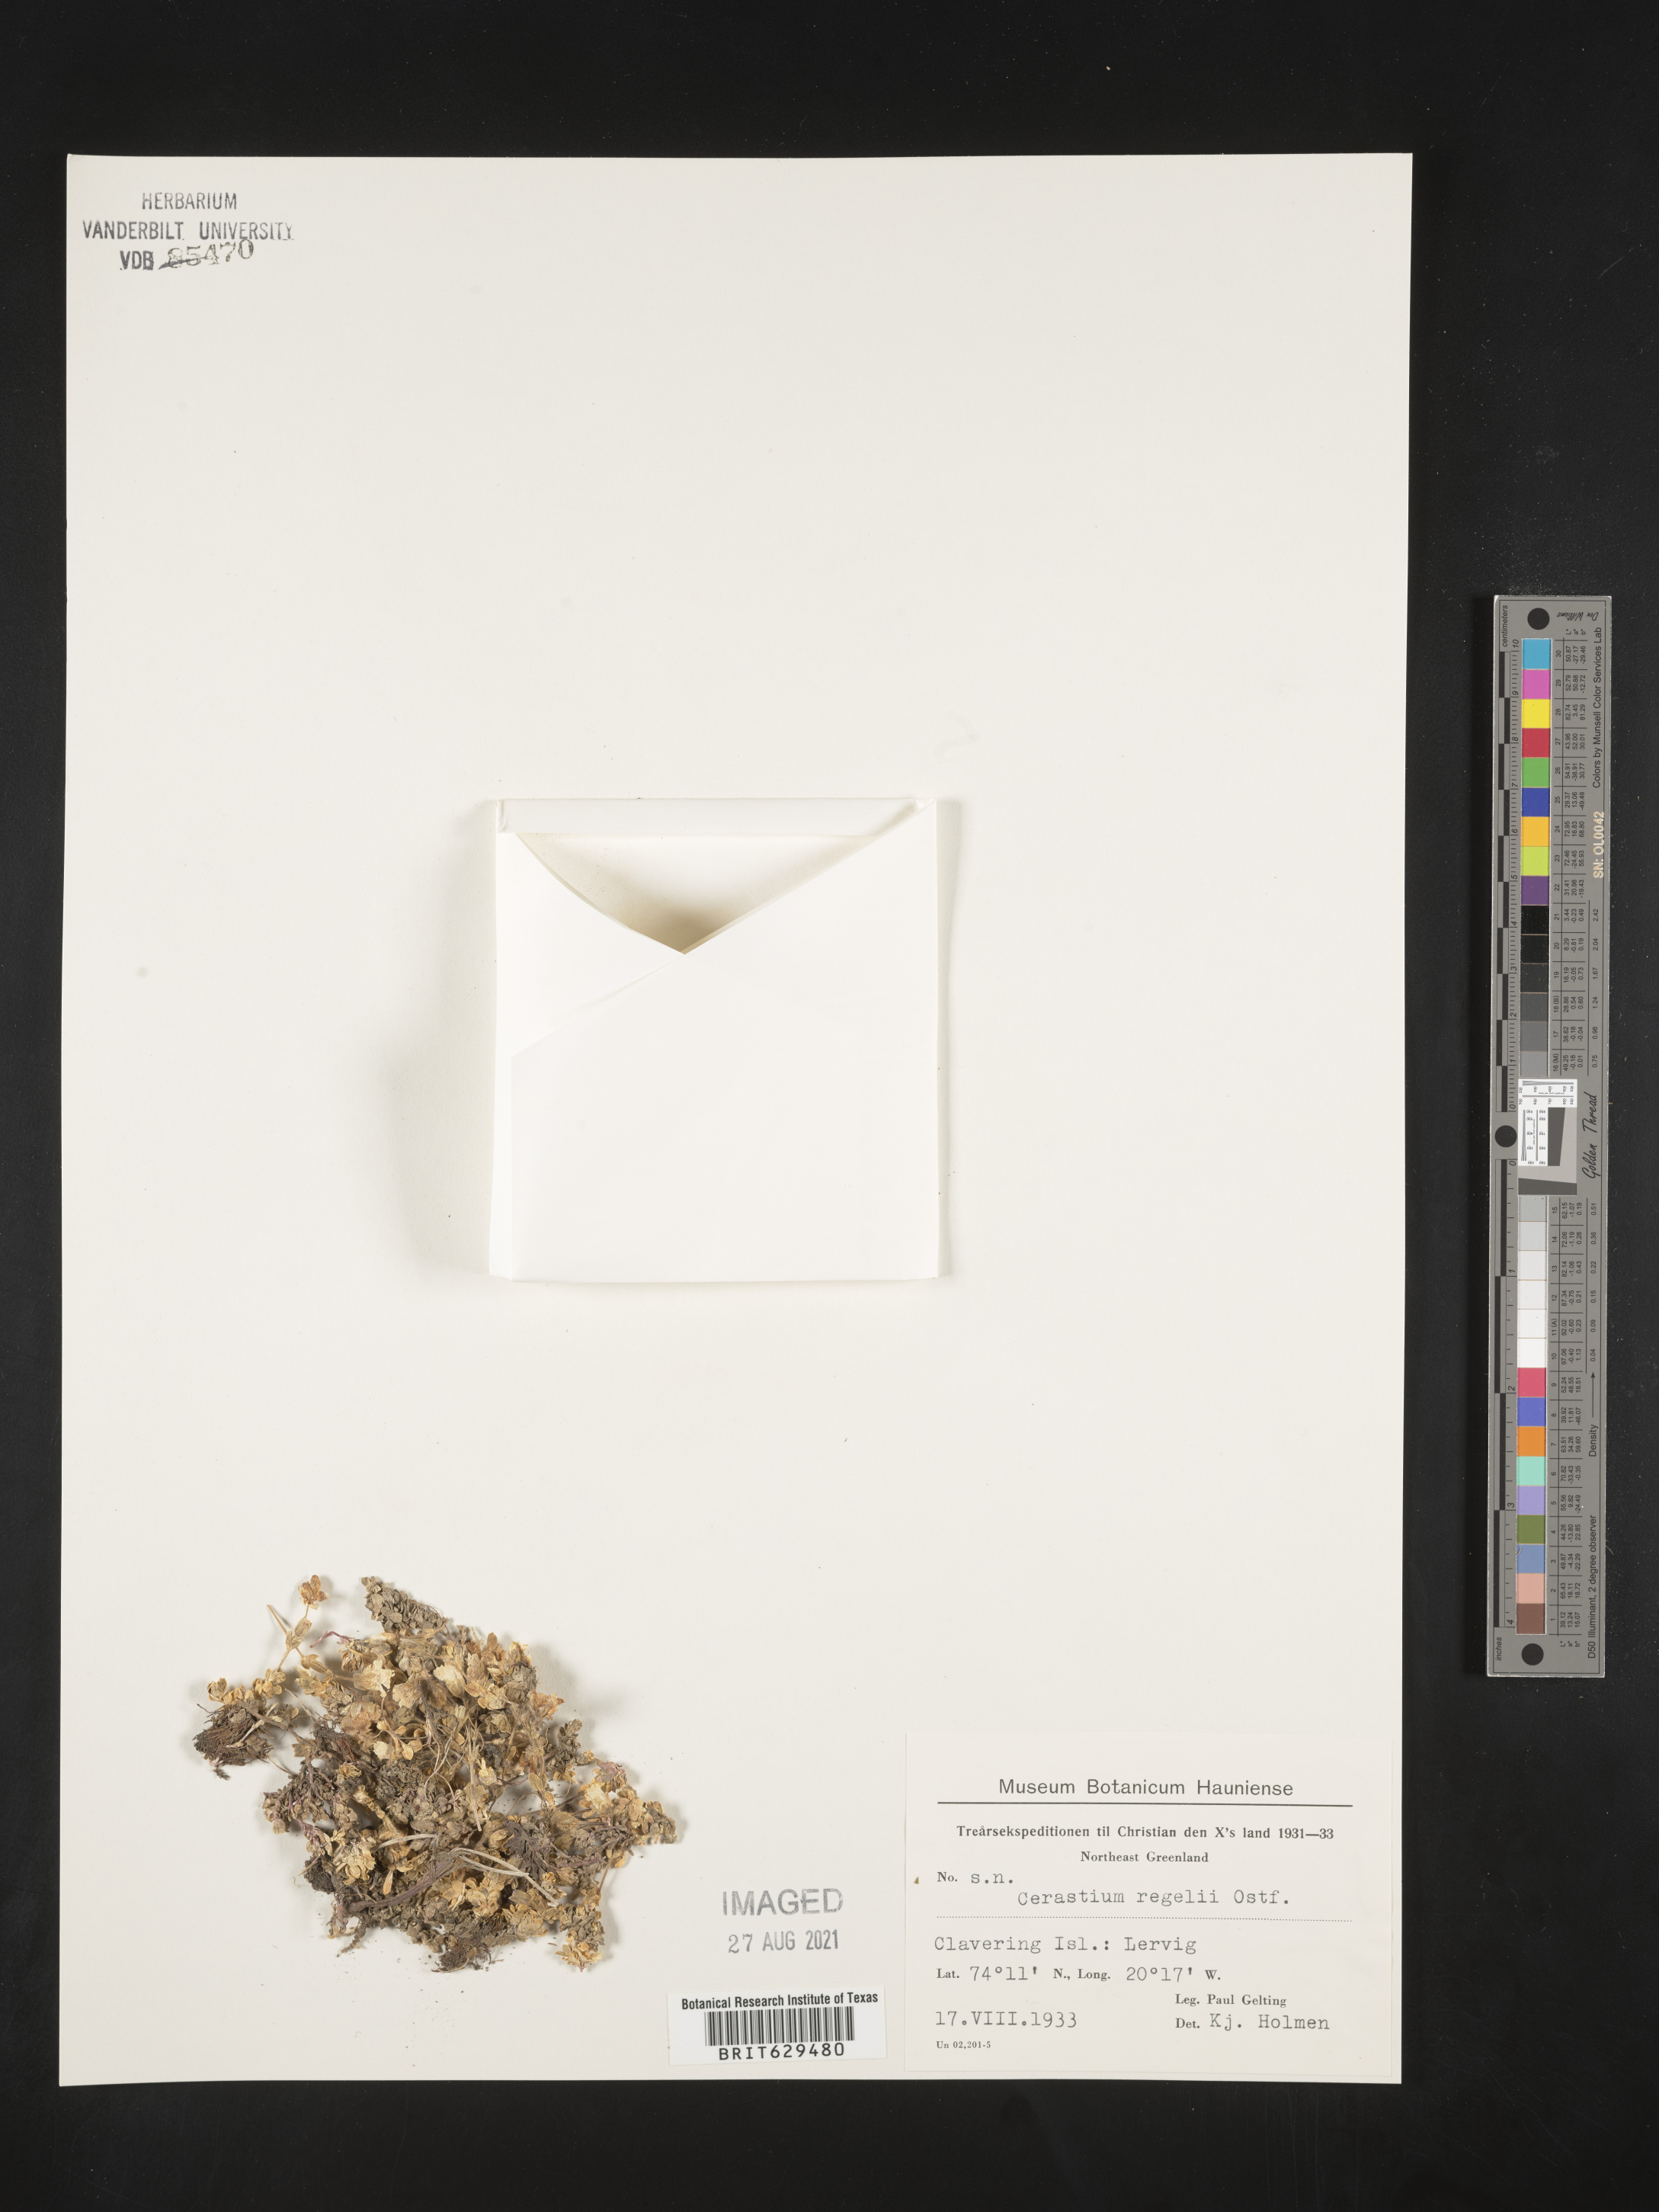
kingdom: Plantae
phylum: Tracheophyta
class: Magnoliopsida
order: Caryophyllales
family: Caryophyllaceae
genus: Cerastium
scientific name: Cerastium regelii
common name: Regel's chickweed
